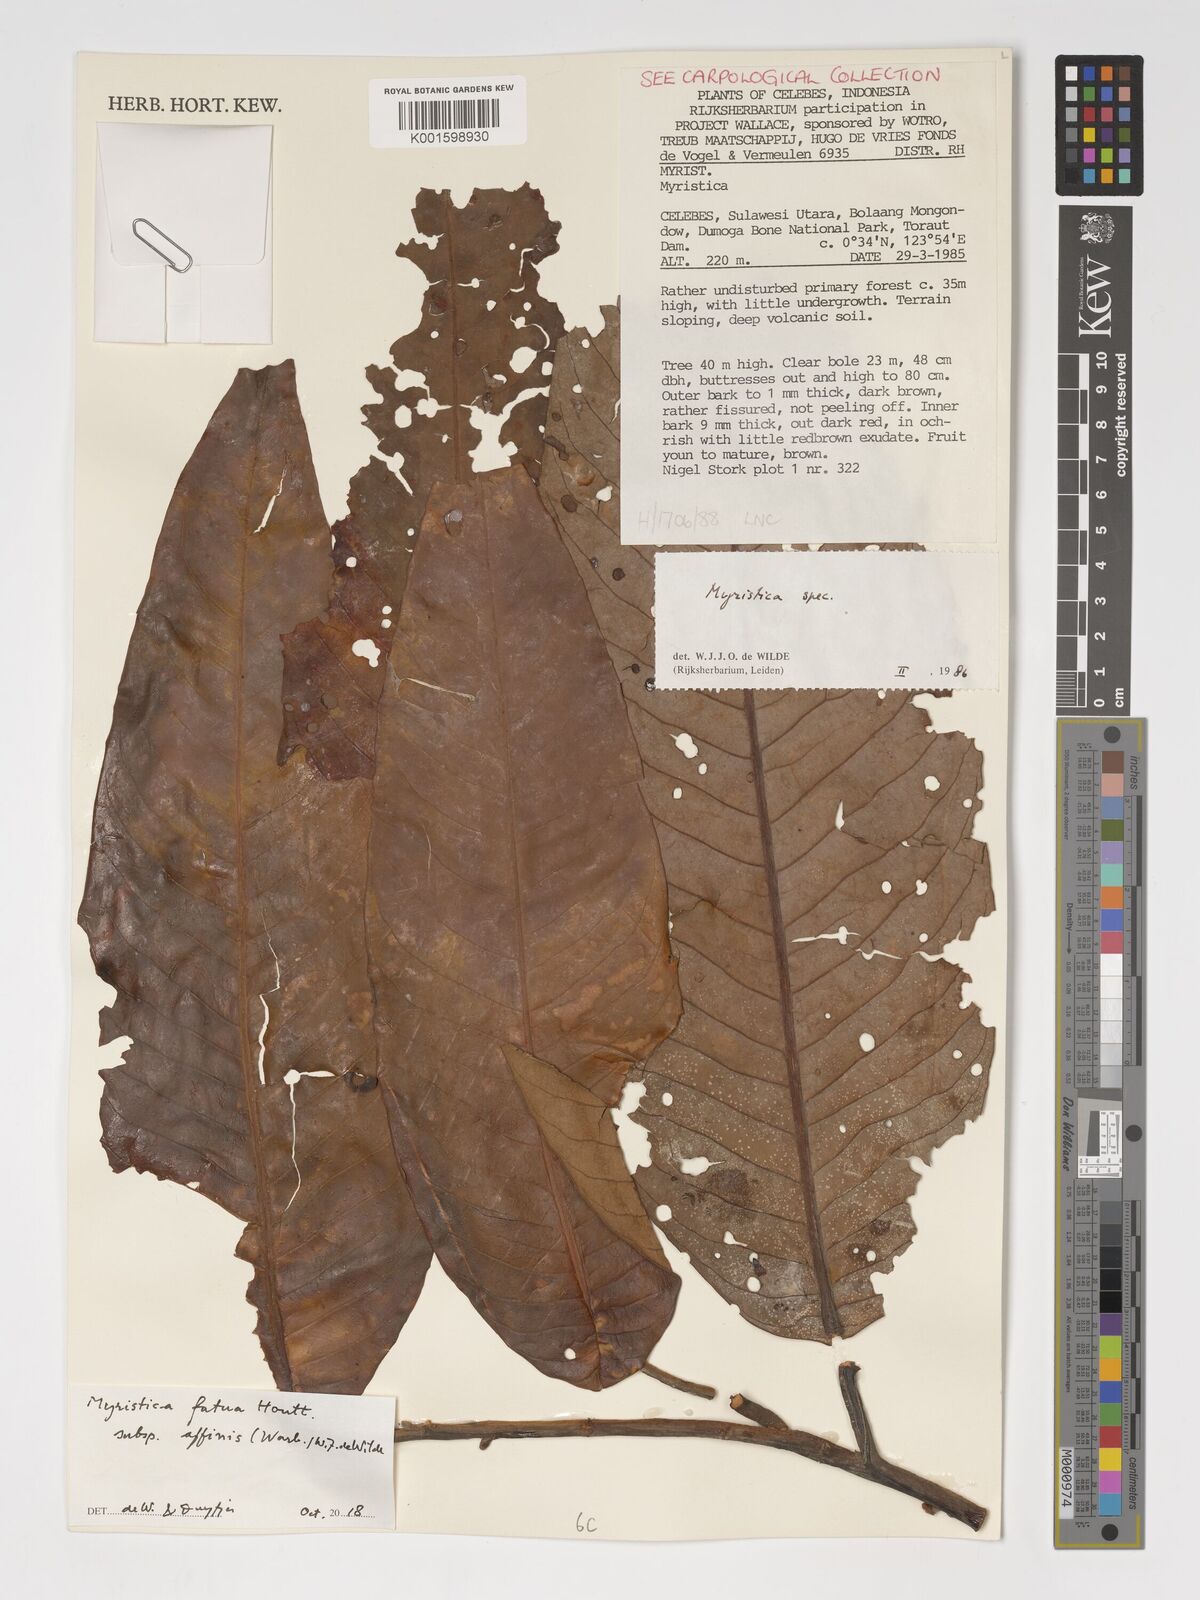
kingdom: Plantae
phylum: Tracheophyta
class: Magnoliopsida
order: Magnoliales
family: Myristicaceae
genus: Myristica
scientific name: Myristica fatua
